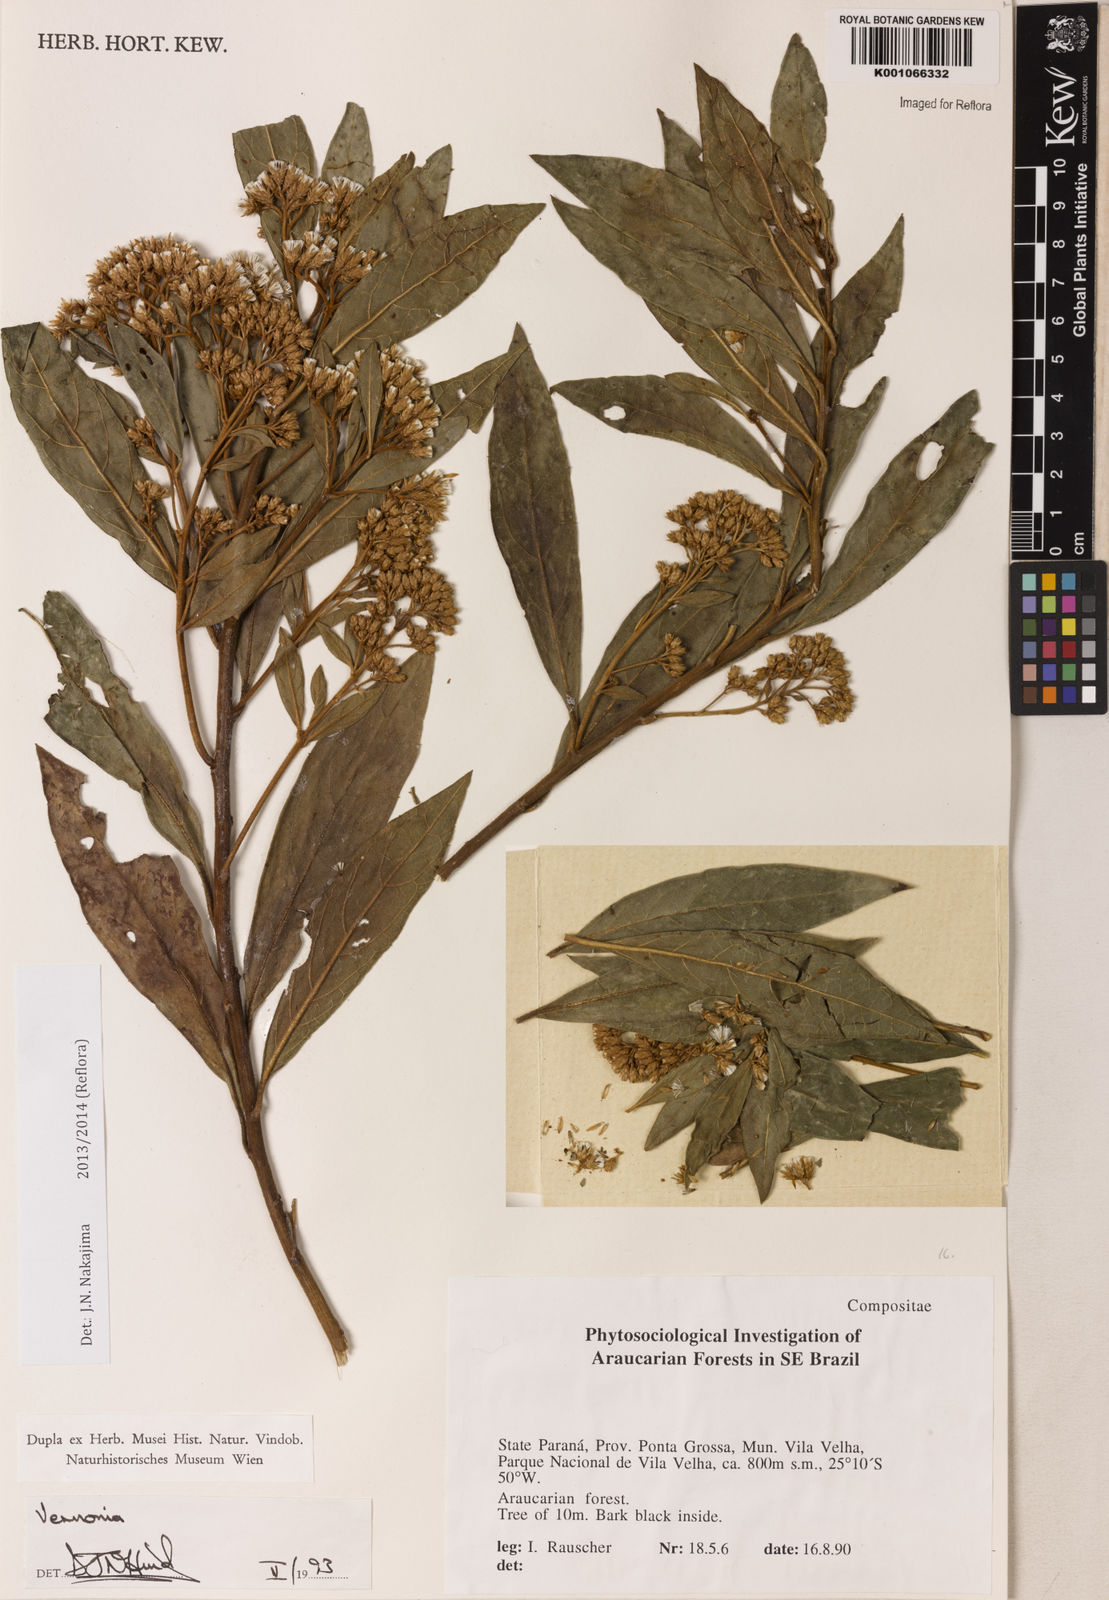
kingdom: Plantae
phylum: Tracheophyta
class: Magnoliopsida
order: Asterales
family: Asteraceae
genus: Vernonanthura
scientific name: Vernonanthura puberula
